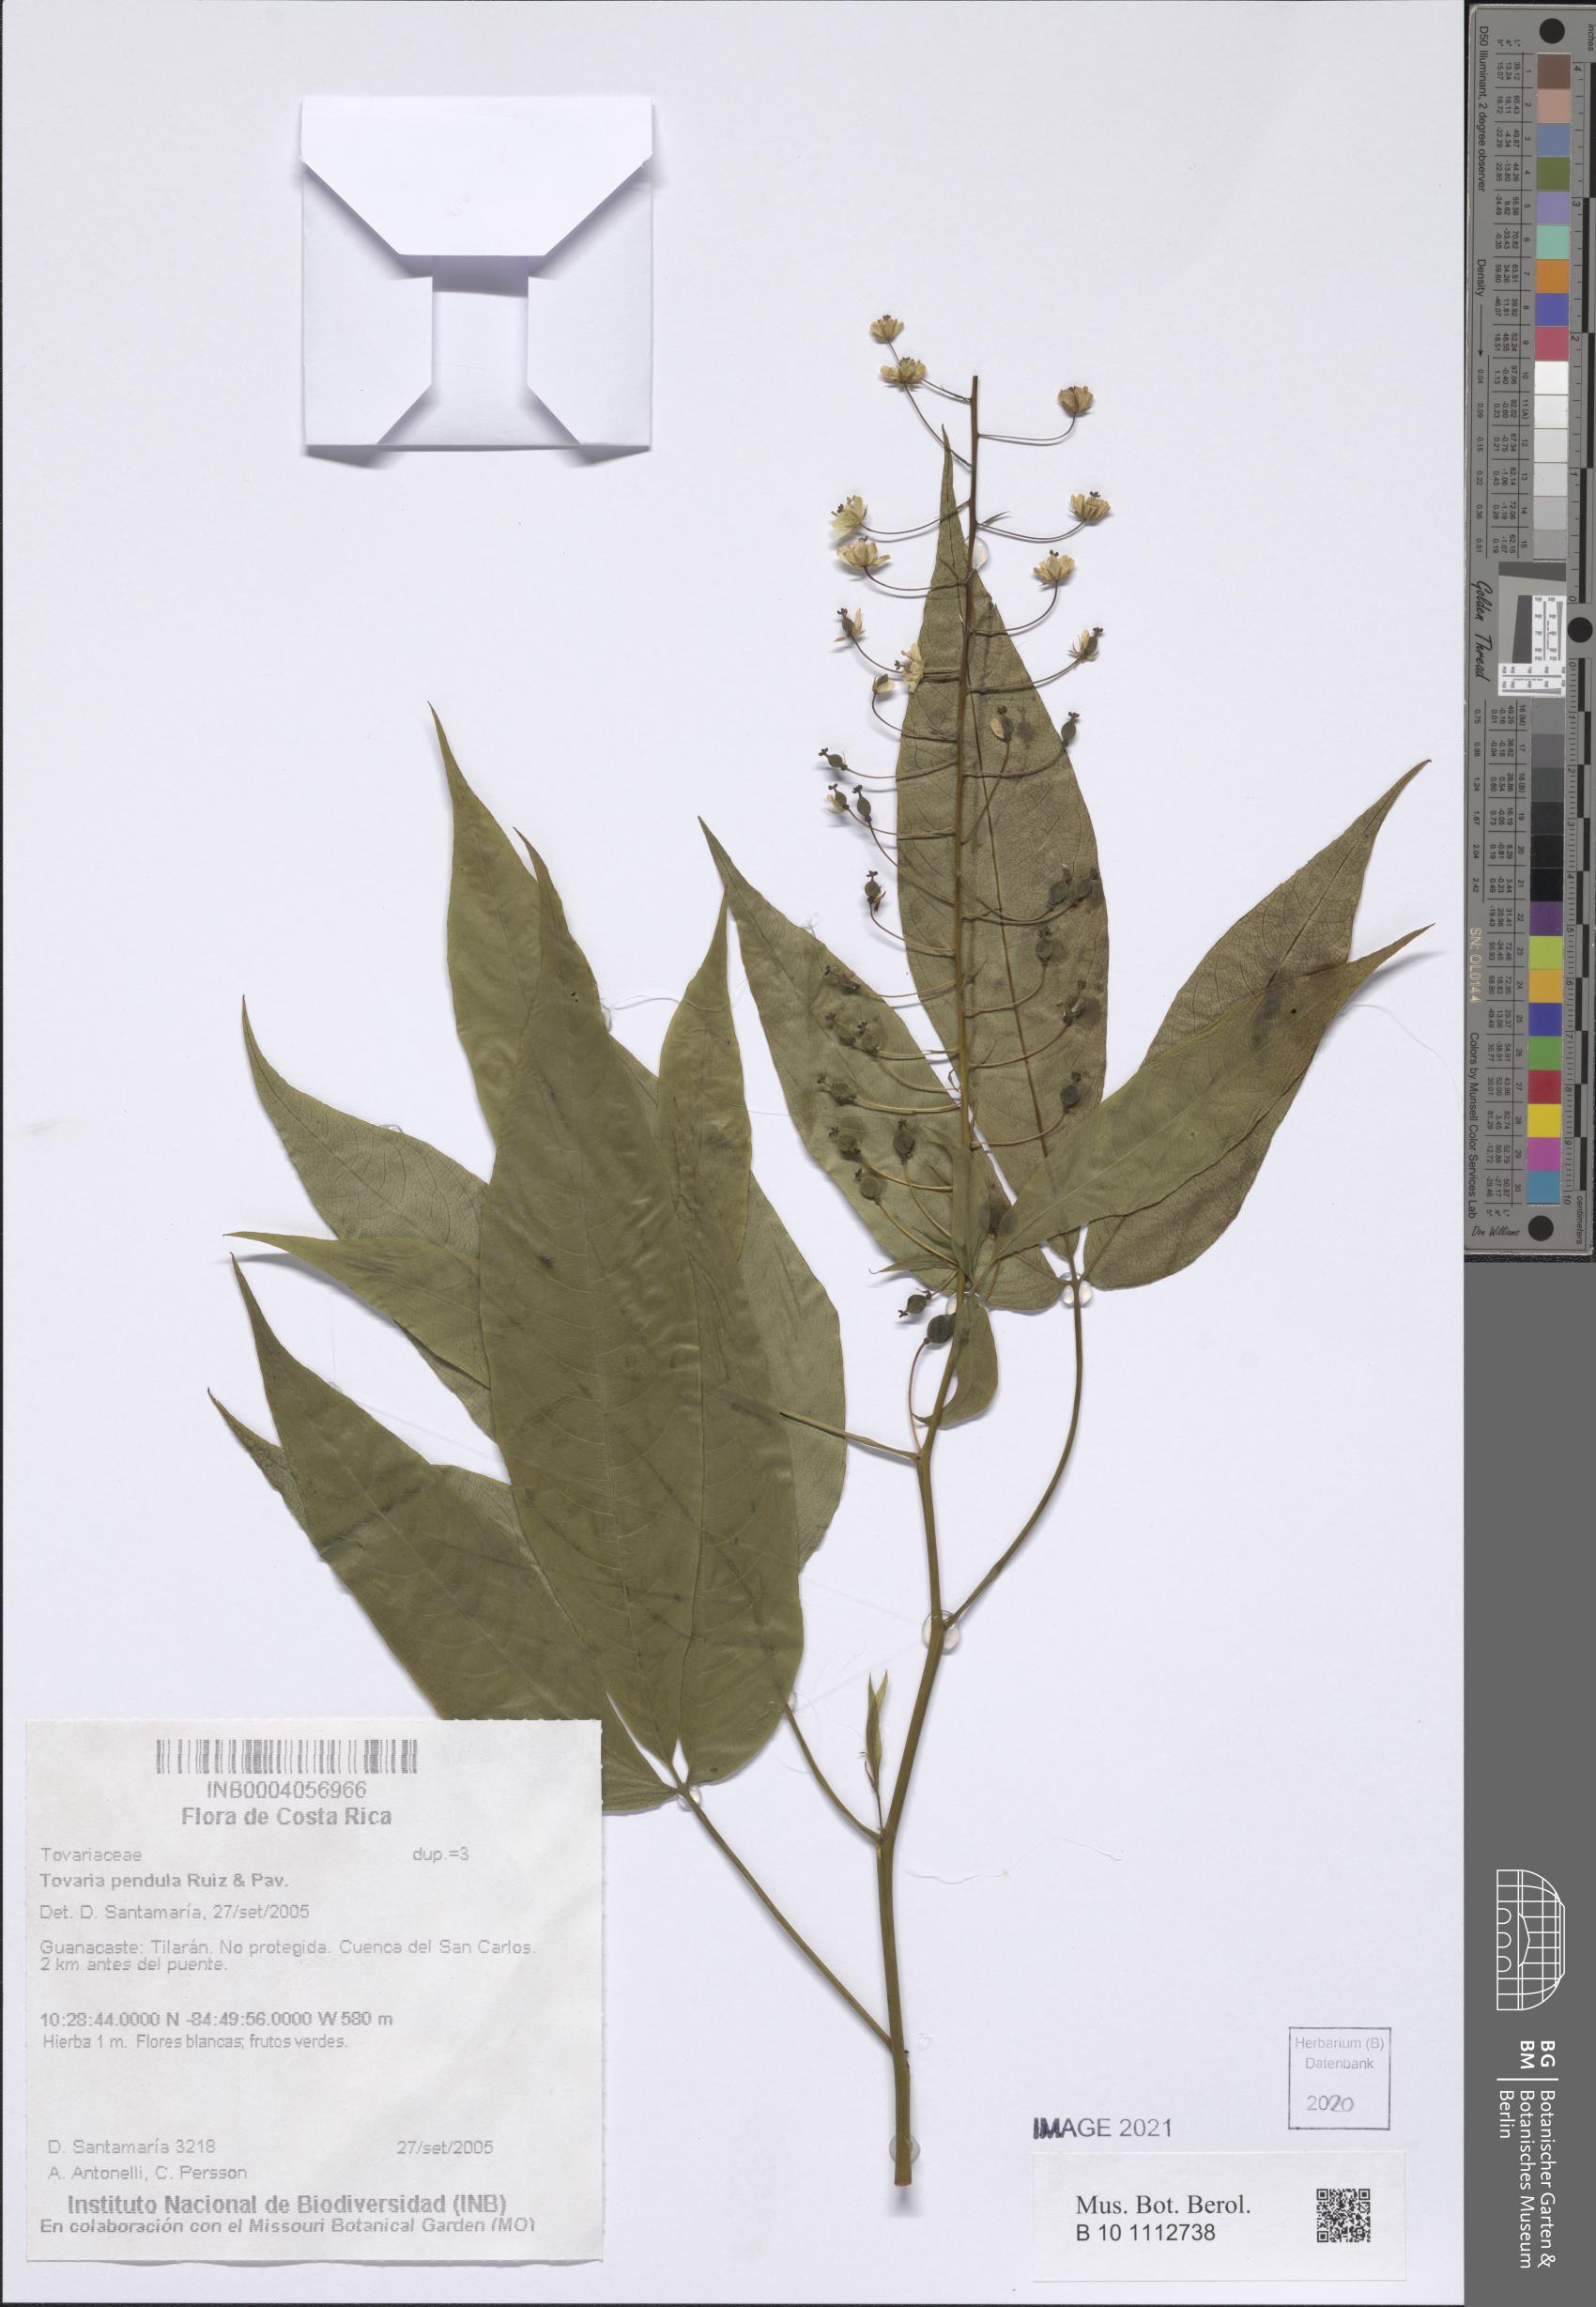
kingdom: Plantae
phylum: Tracheophyta
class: Magnoliopsida
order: Brassicales
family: Tovariaceae
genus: Tovaria
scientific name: Tovaria pendula
